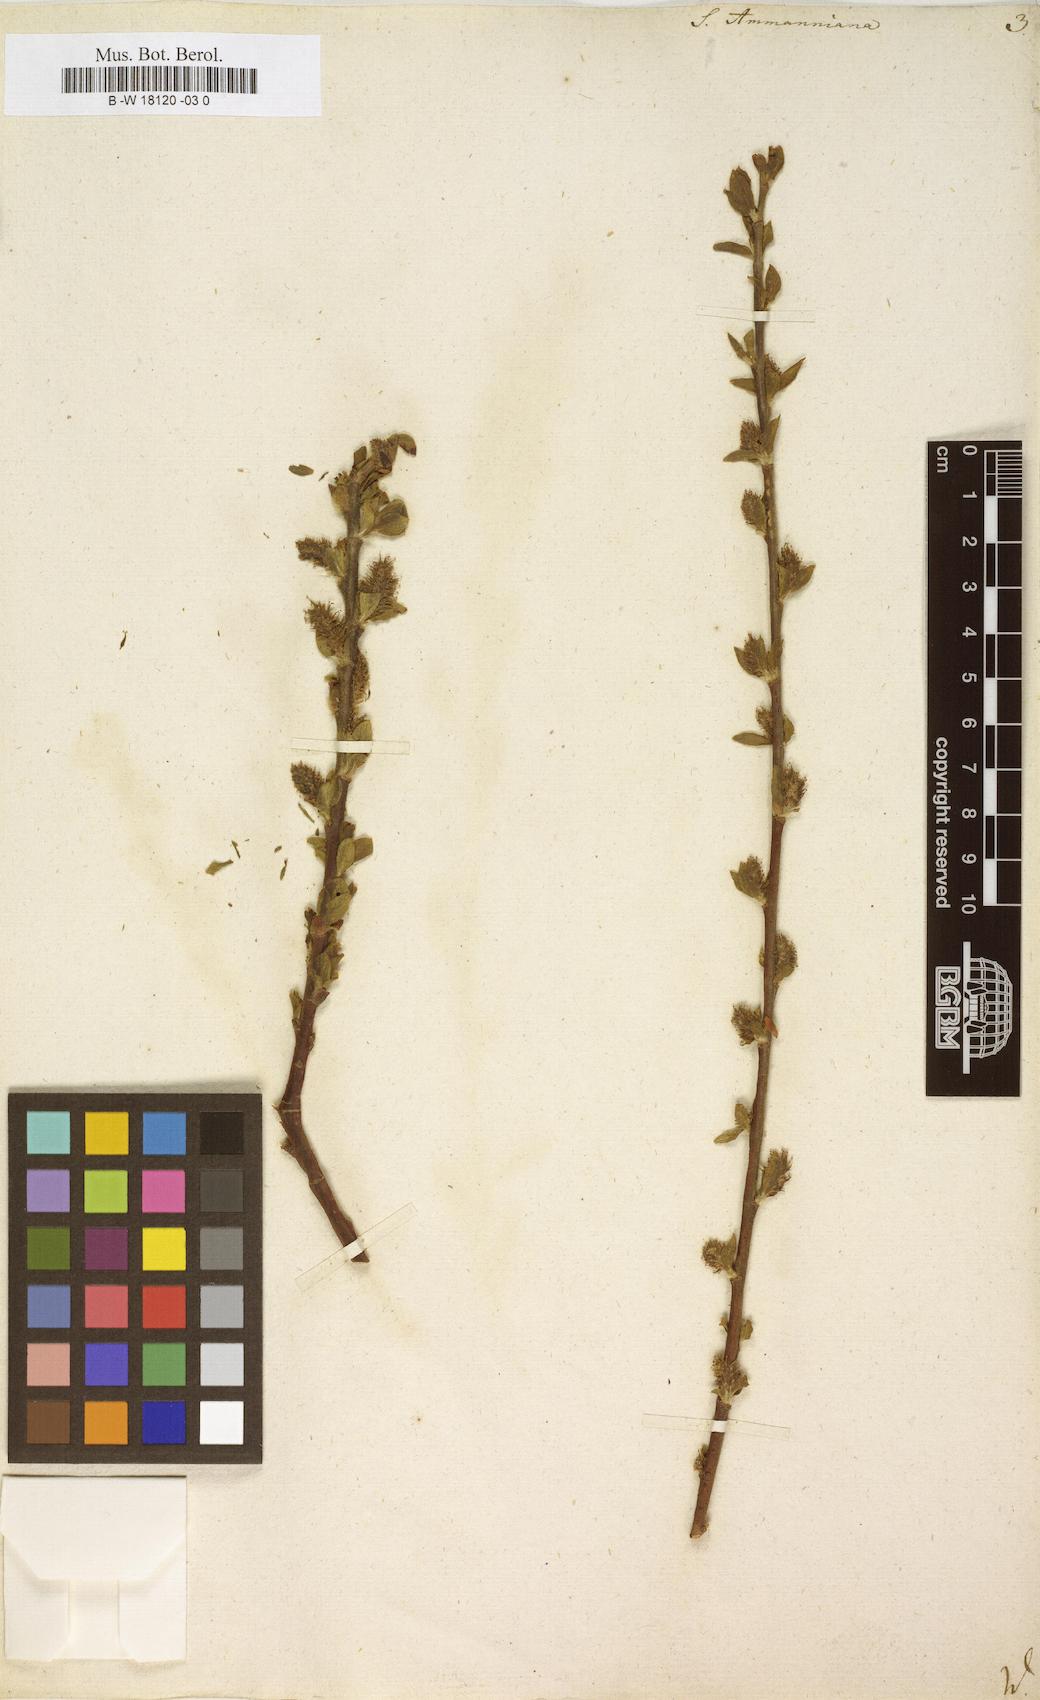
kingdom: Plantae
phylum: Tracheophyta
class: Magnoliopsida
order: Malpighiales
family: Salicaceae
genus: Salix
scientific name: Salix myrsinifolia
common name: Dark-leaved willow
